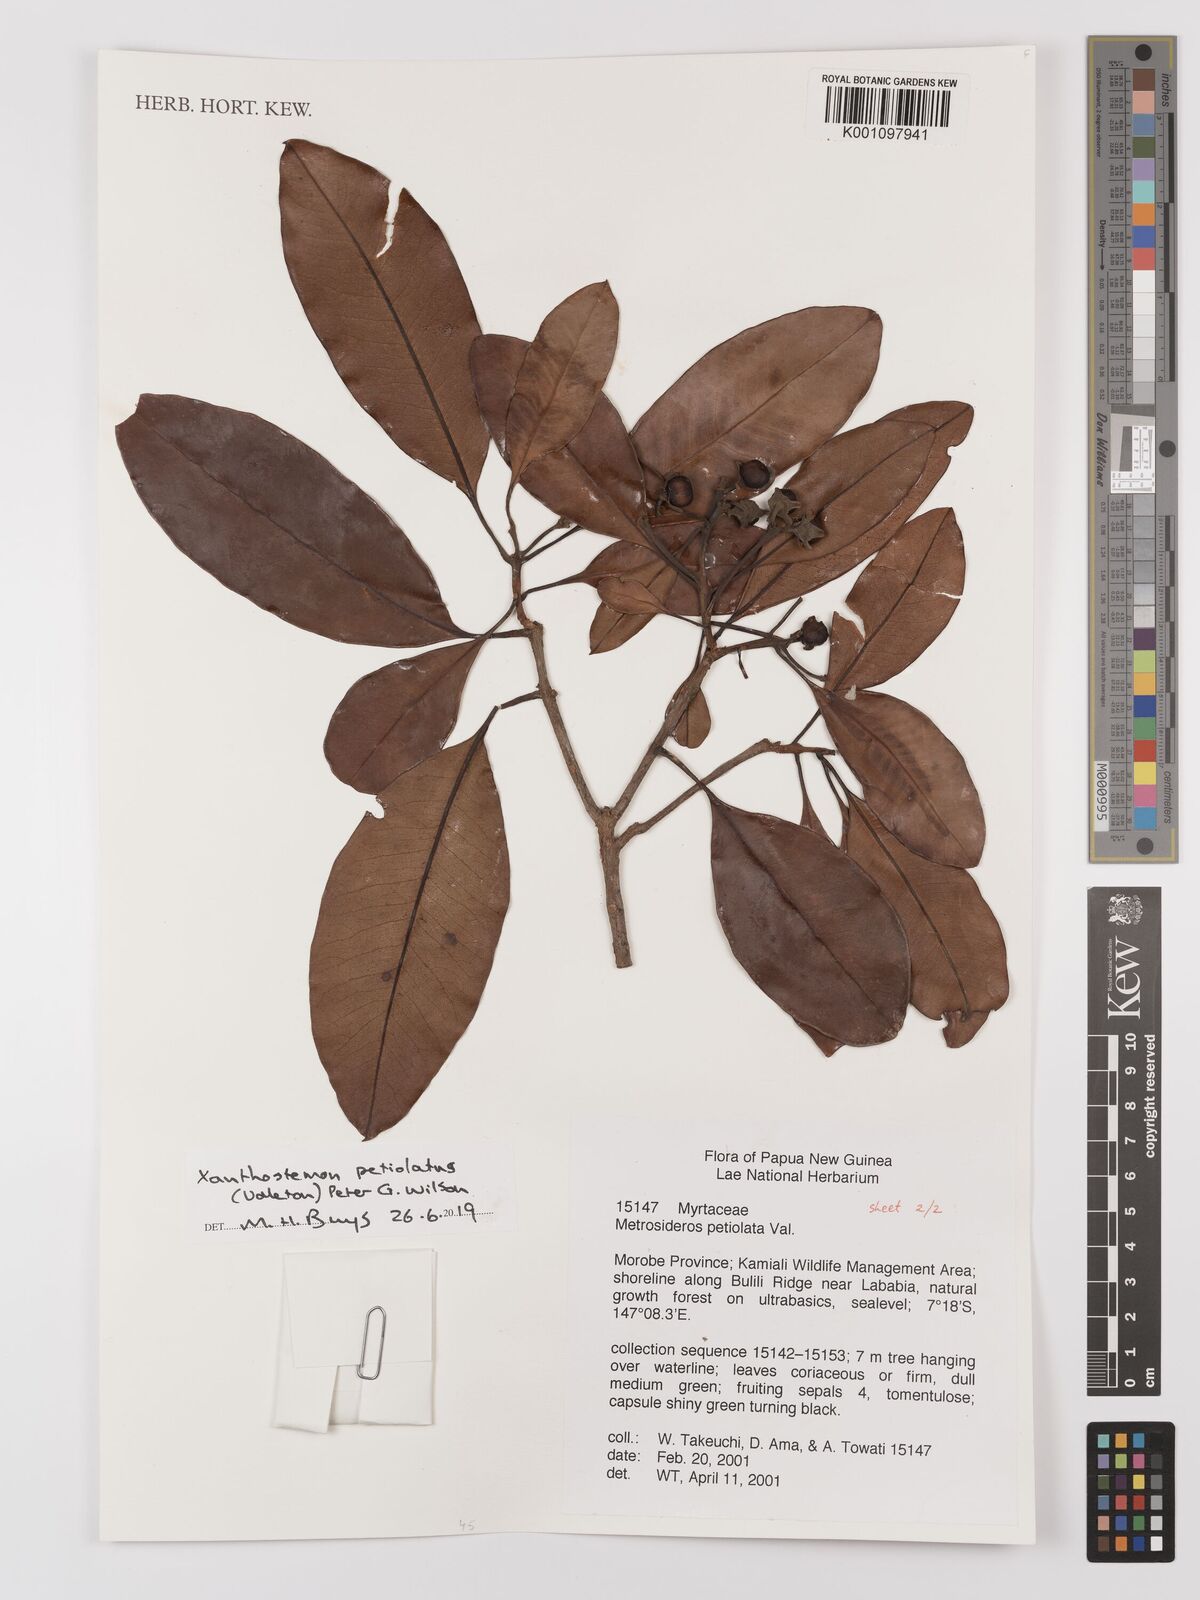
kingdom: Plantae
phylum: Tracheophyta
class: Magnoliopsida
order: Myrtales
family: Myrtaceae
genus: Xanthostemon
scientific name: Xanthostemon
